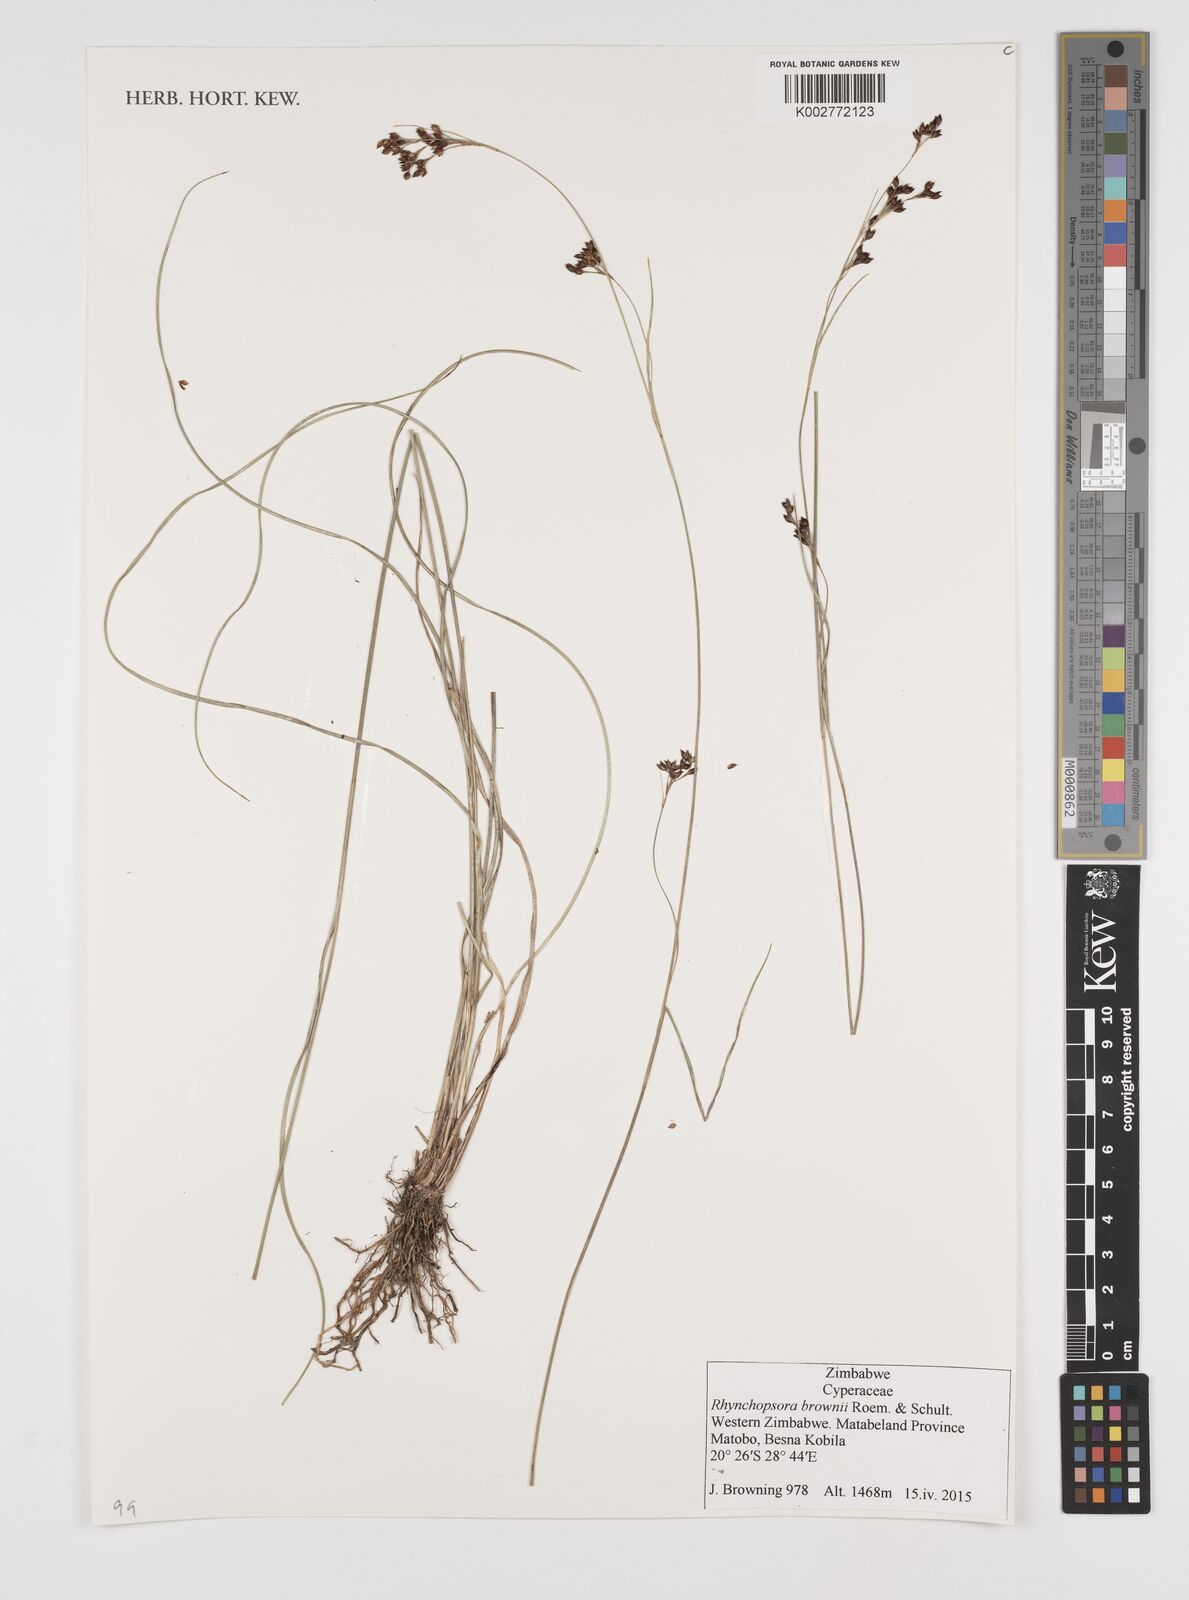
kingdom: Plantae
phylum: Tracheophyta
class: Liliopsida
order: Poales
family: Cyperaceae
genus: Rhynchospora
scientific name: Rhynchospora brownii
